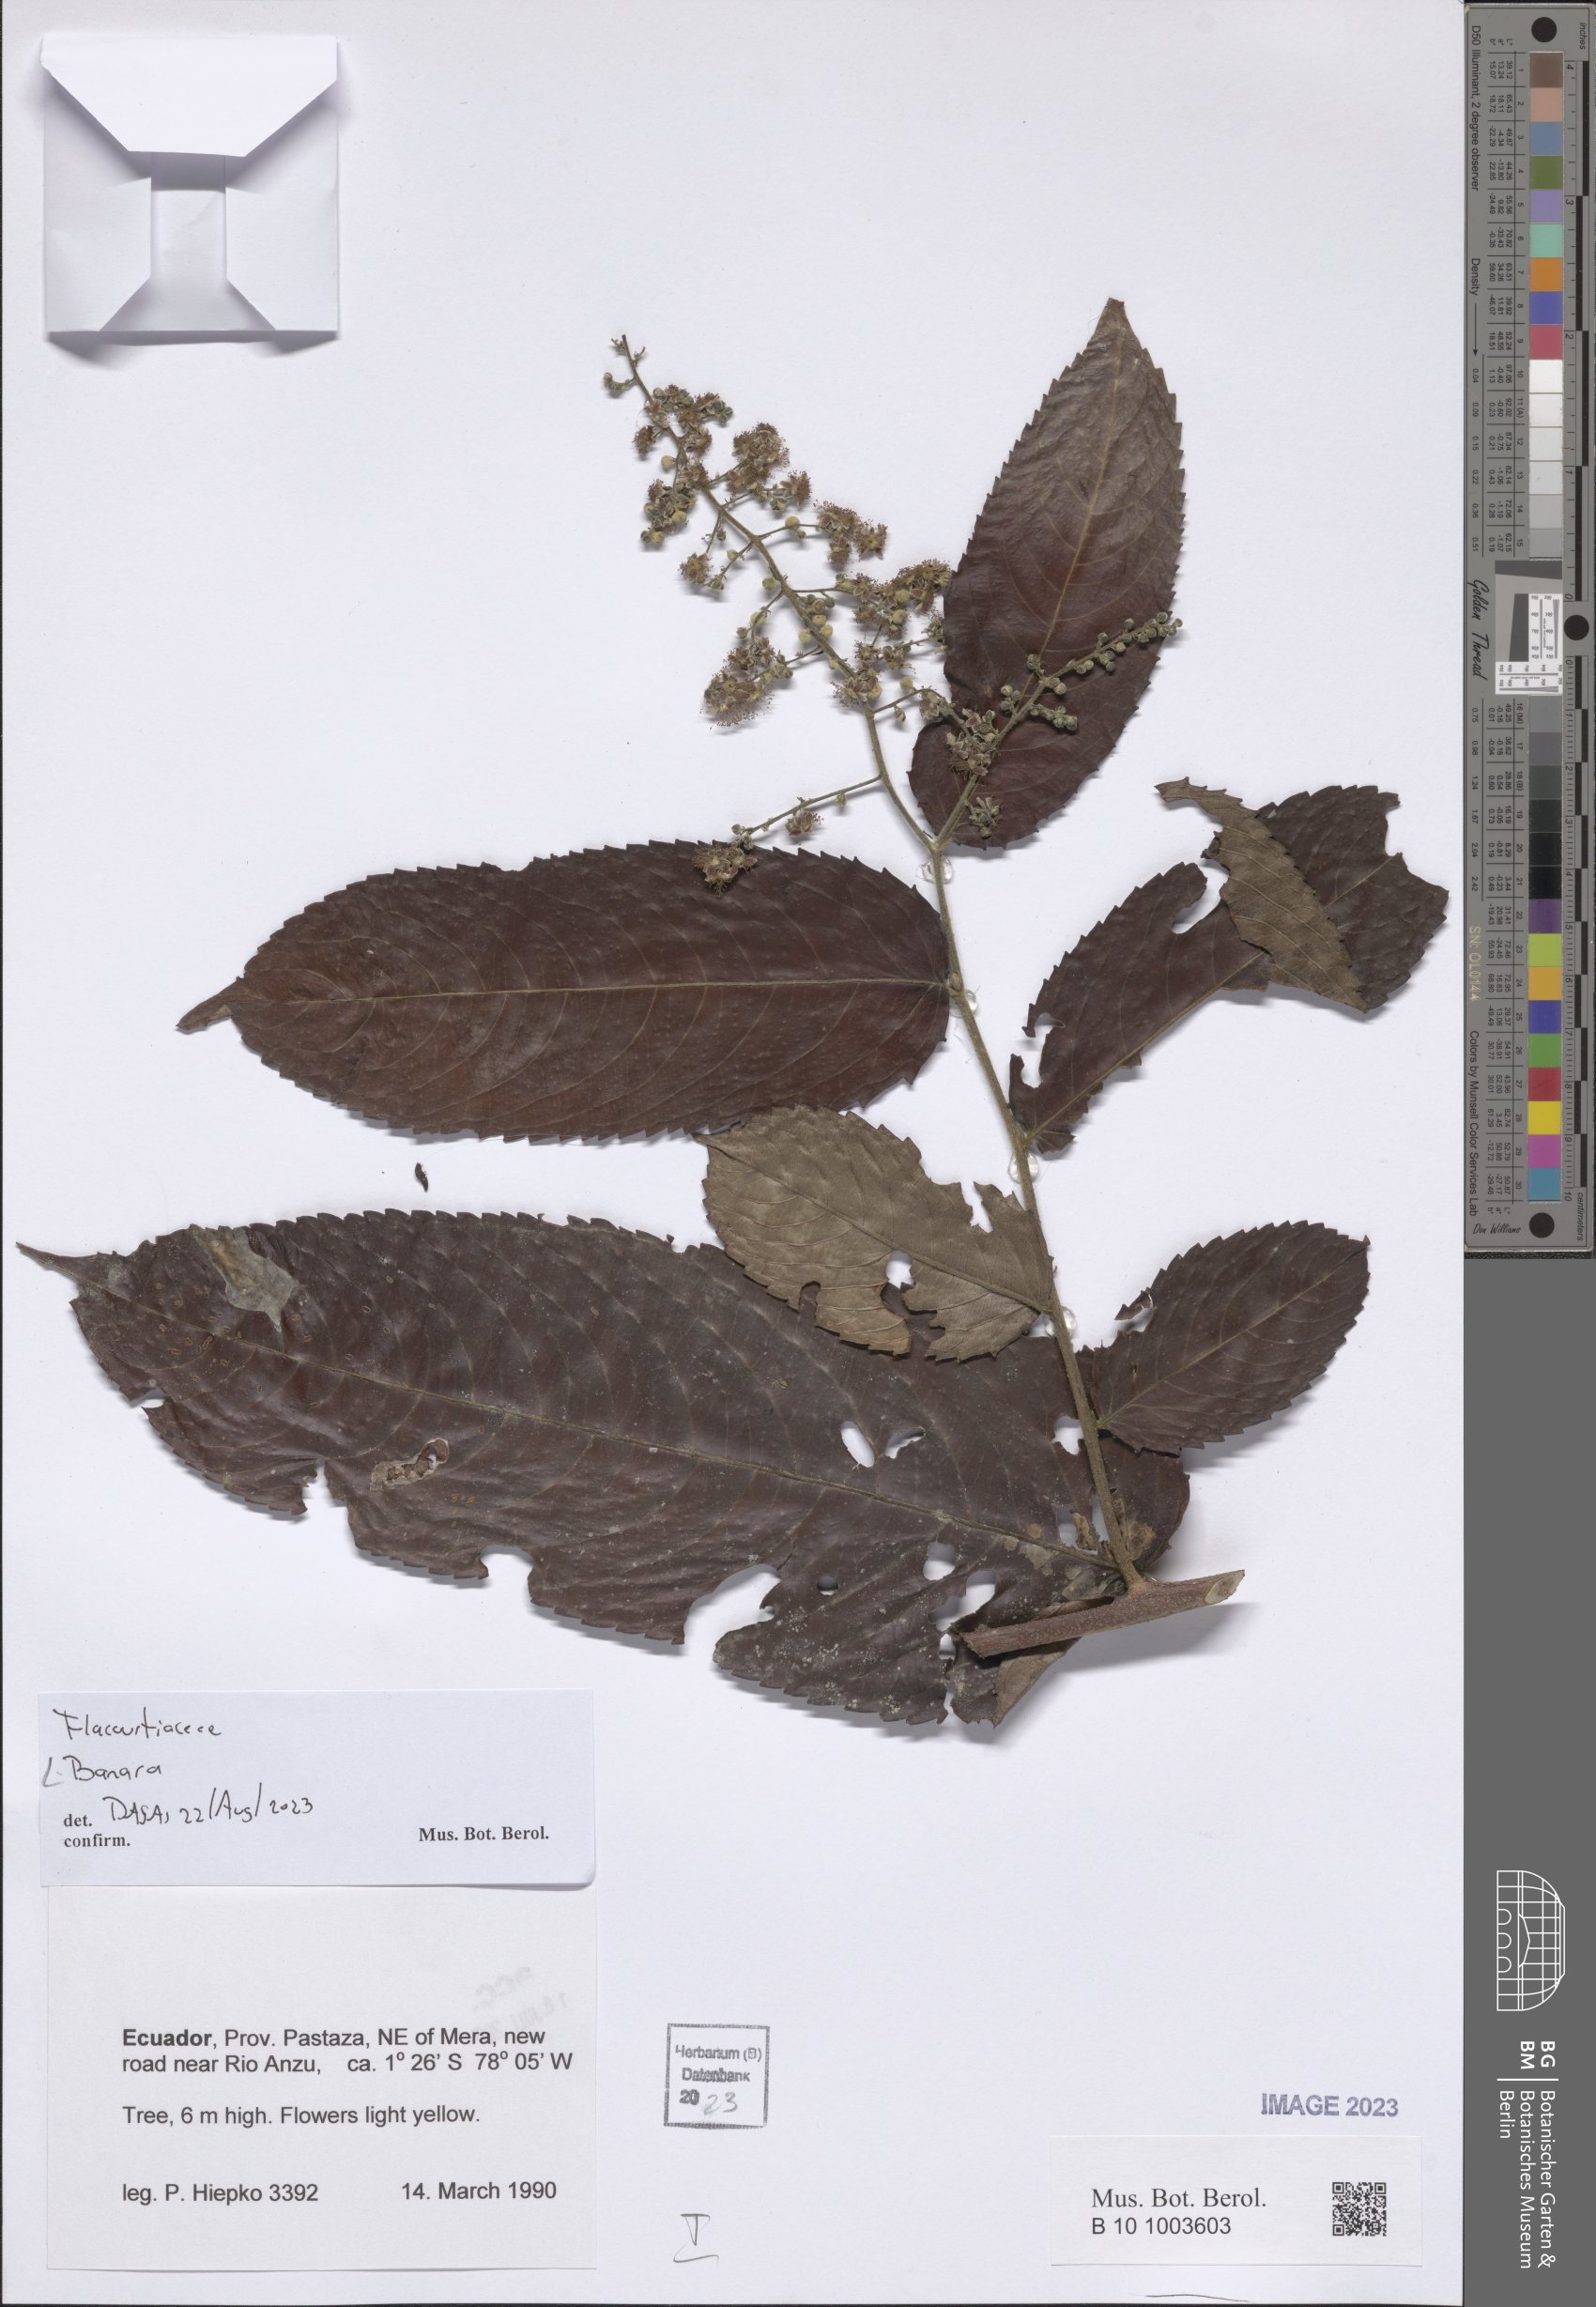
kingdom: Plantae
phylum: Tracheophyta
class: Magnoliopsida
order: Malpighiales
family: Salicaceae
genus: Banara
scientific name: Banara
